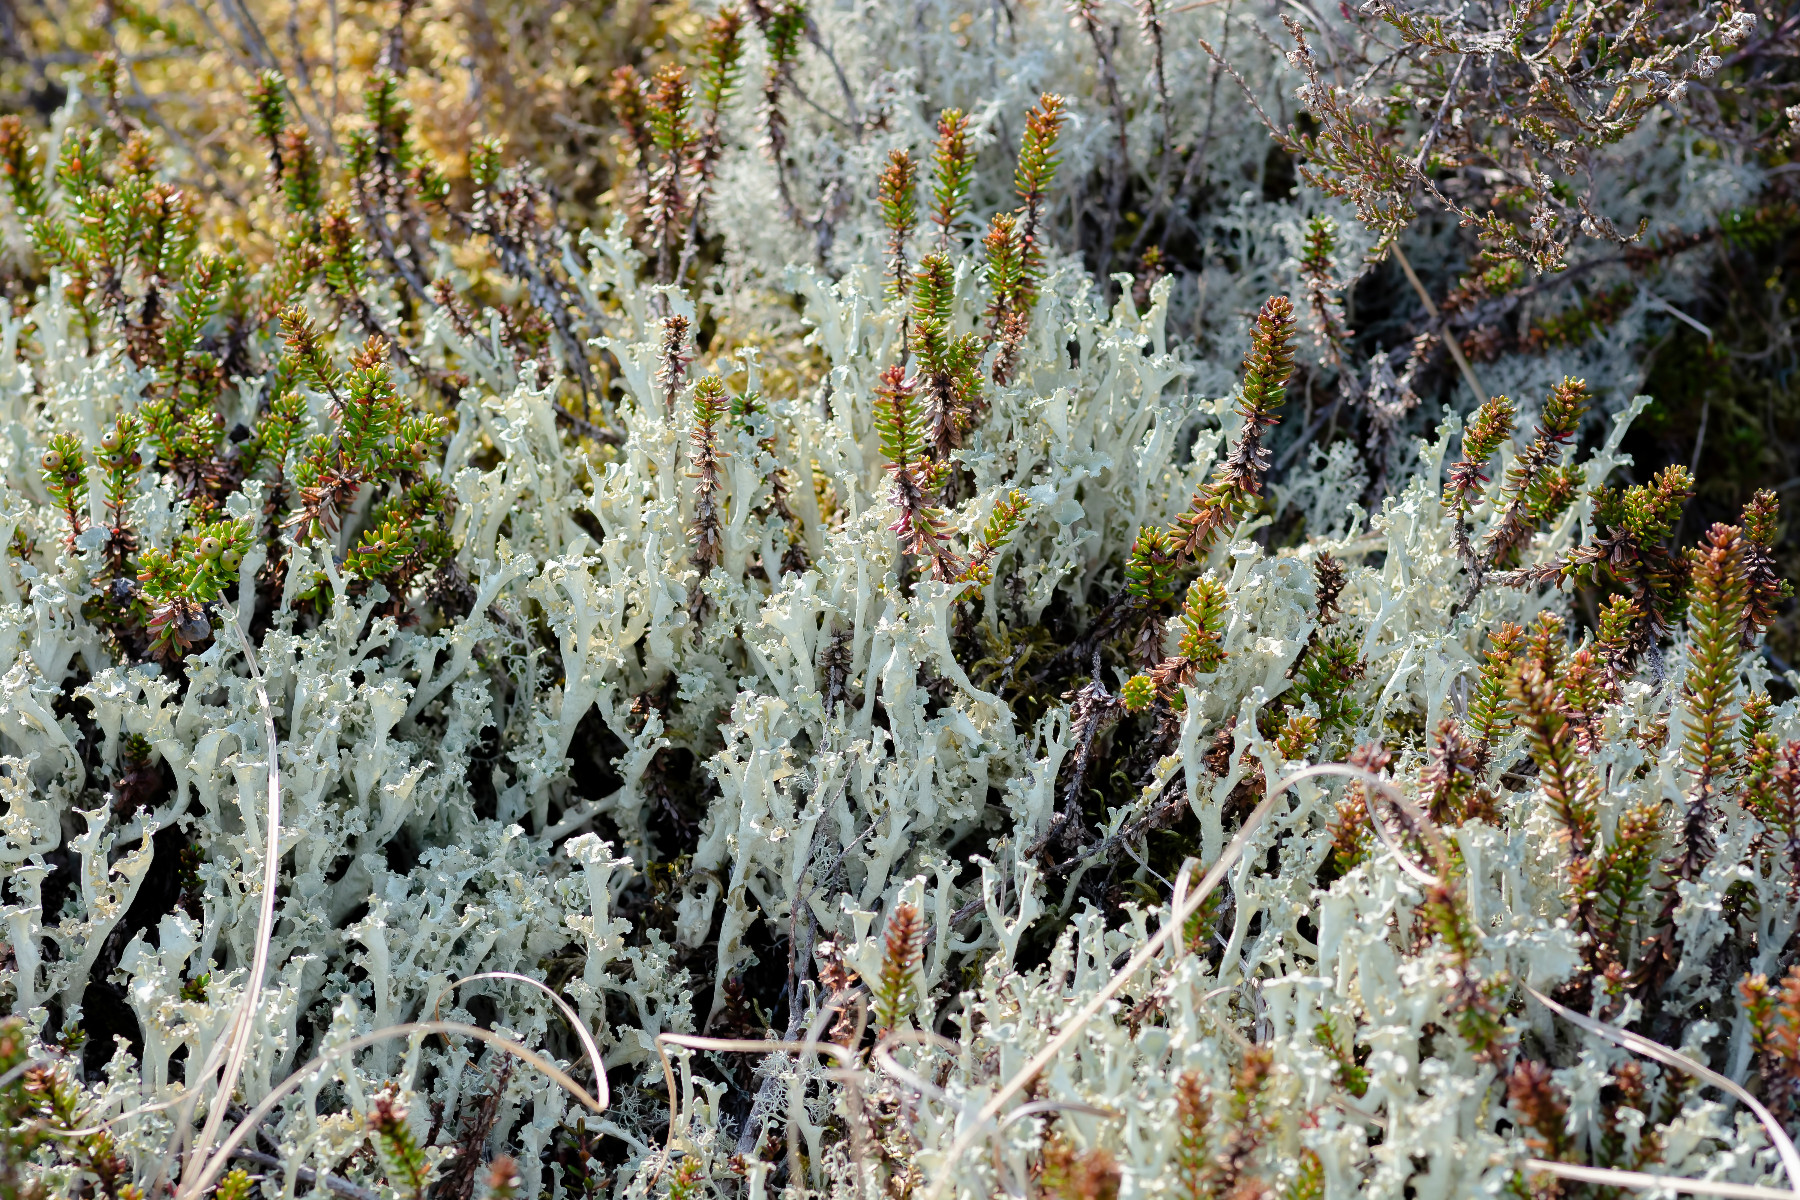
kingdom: Fungi
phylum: Ascomycota
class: Lecanoromycetes
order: Lecanorales
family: Parmeliaceae
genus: Nephromopsis
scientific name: Nephromopsis cucullata
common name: kræmmerhus-kruslav
